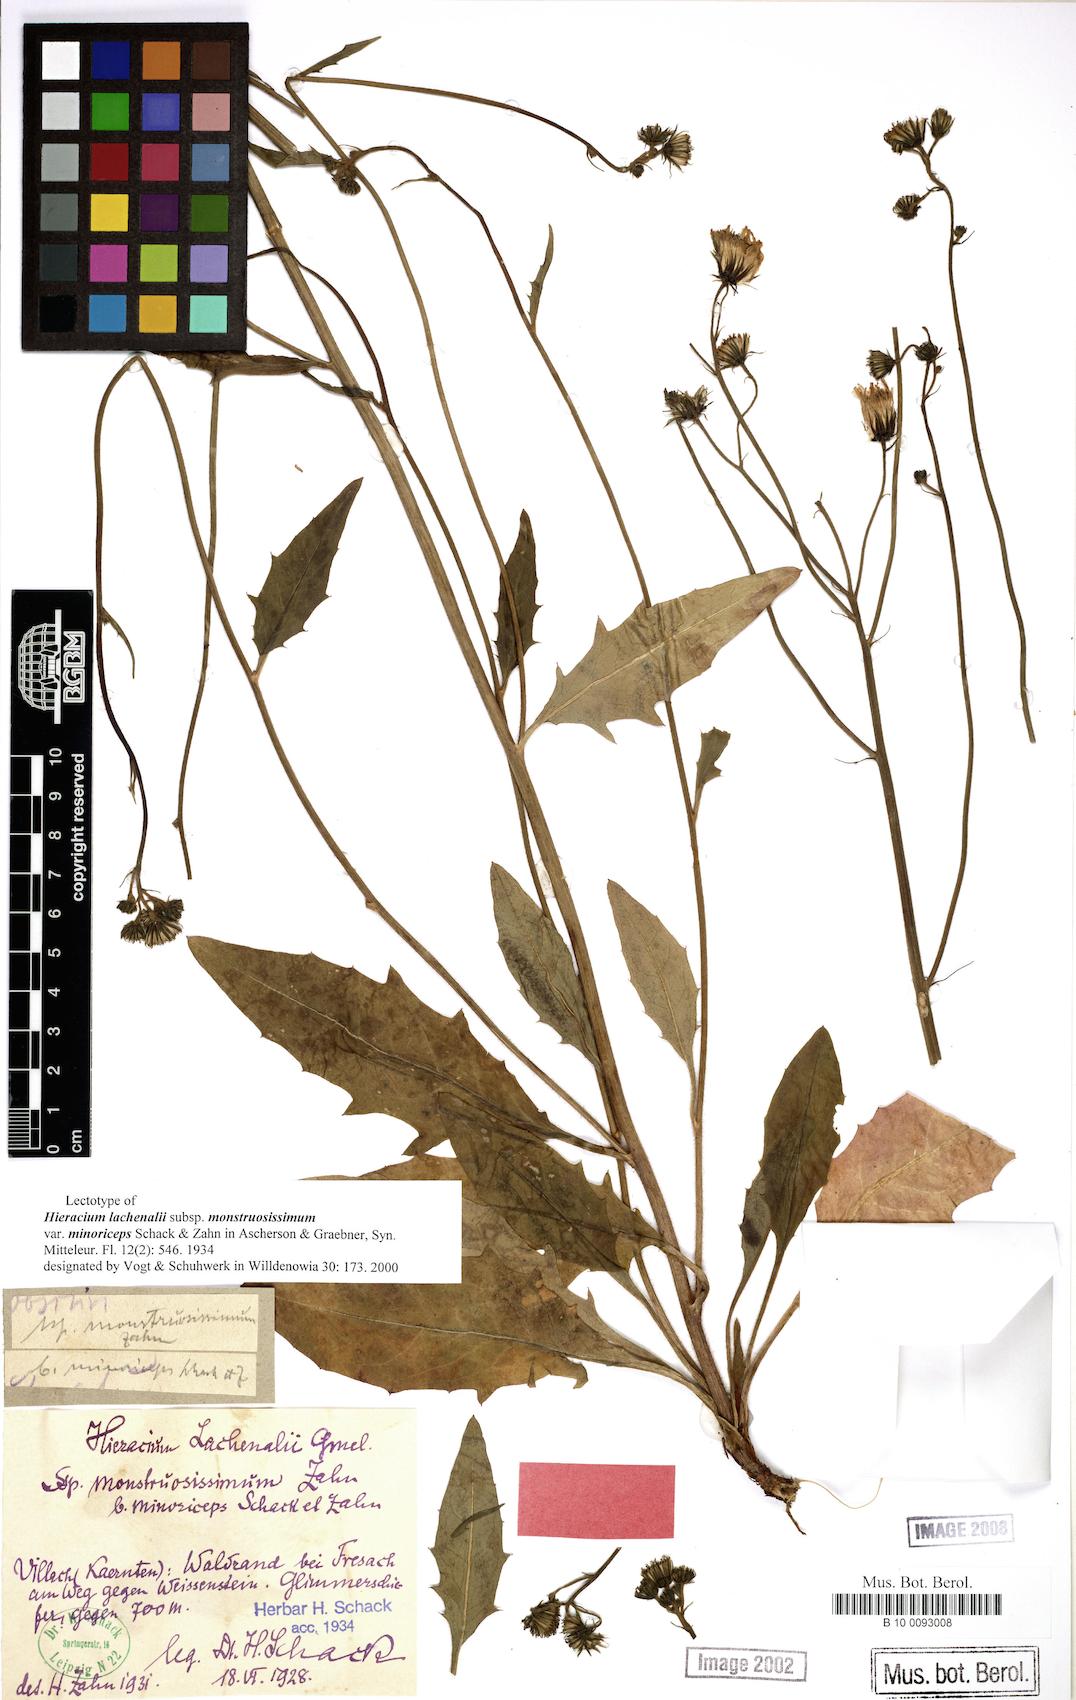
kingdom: Plantae
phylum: Tracheophyta
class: Magnoliopsida
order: Asterales
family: Asteraceae
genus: Hieracium
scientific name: Hieracium lachenalii
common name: Common hawkweed
